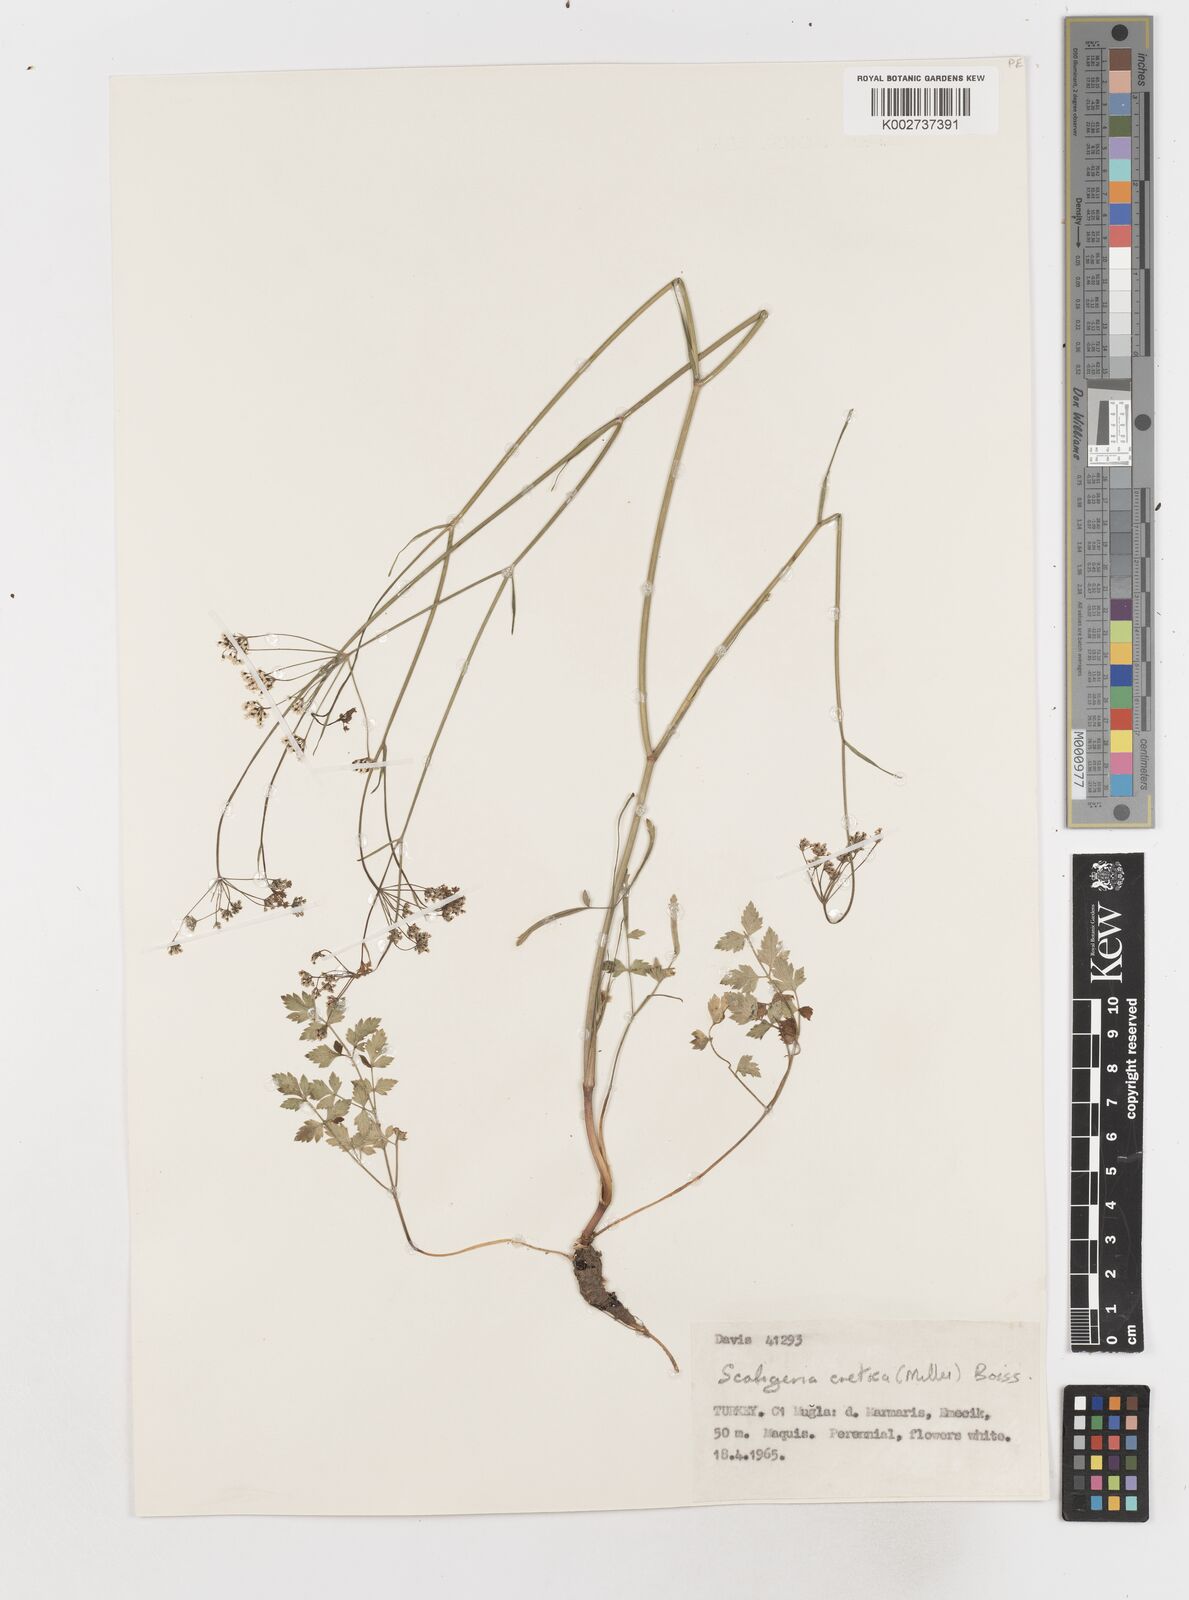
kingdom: Plantae
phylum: Tracheophyta
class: Magnoliopsida
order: Apiales
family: Apiaceae
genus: Scaligeria
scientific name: Scaligeria
